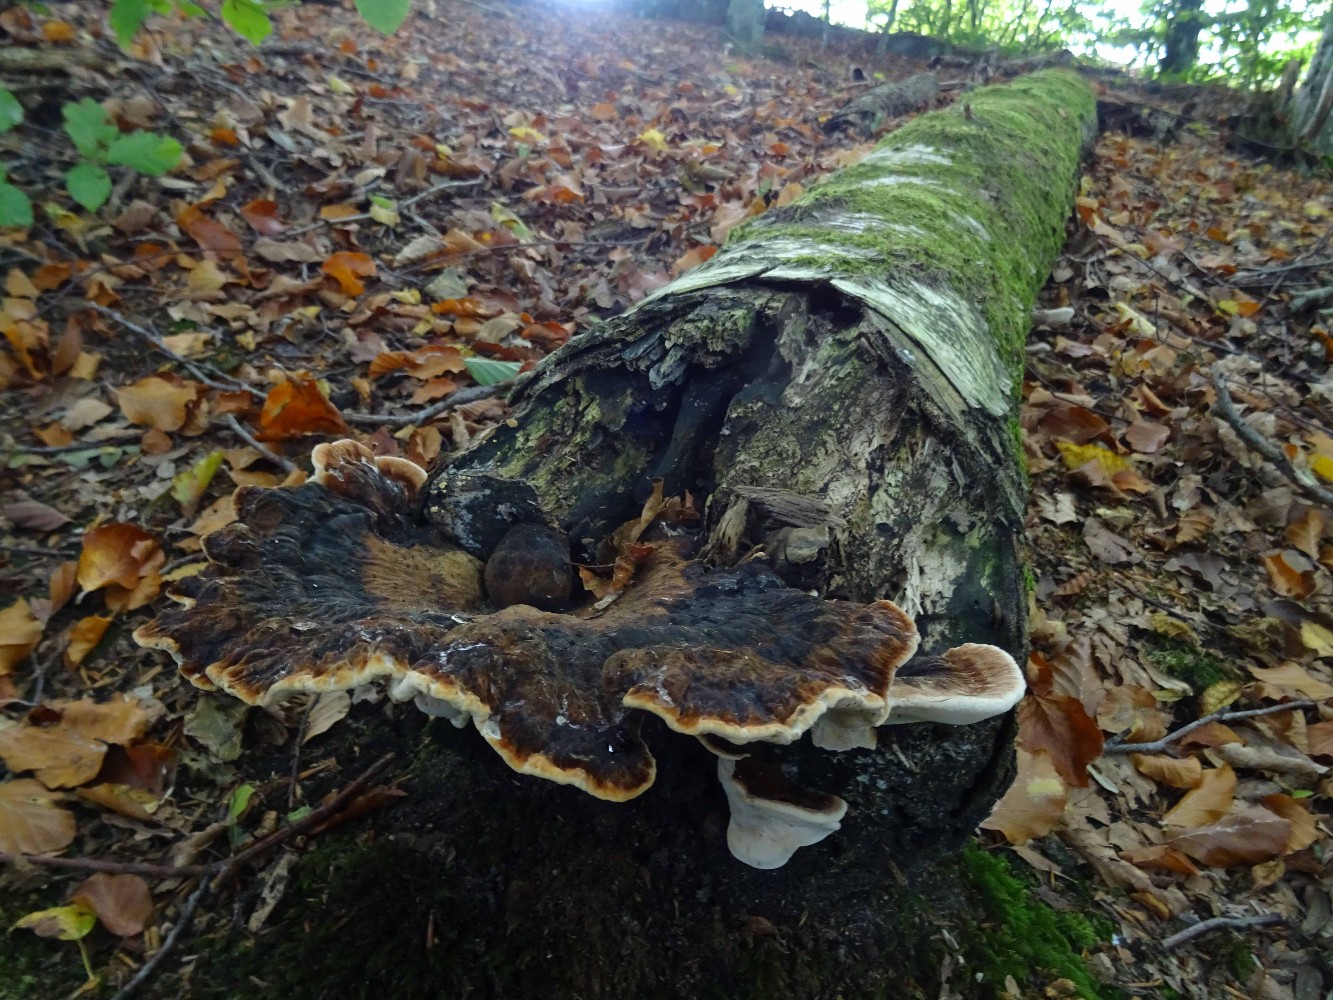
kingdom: Fungi
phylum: Basidiomycota
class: Agaricomycetes
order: Polyporales
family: Ischnodermataceae
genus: Ischnoderma
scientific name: Ischnoderma resinosum
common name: løv-tjæreporesvamp
